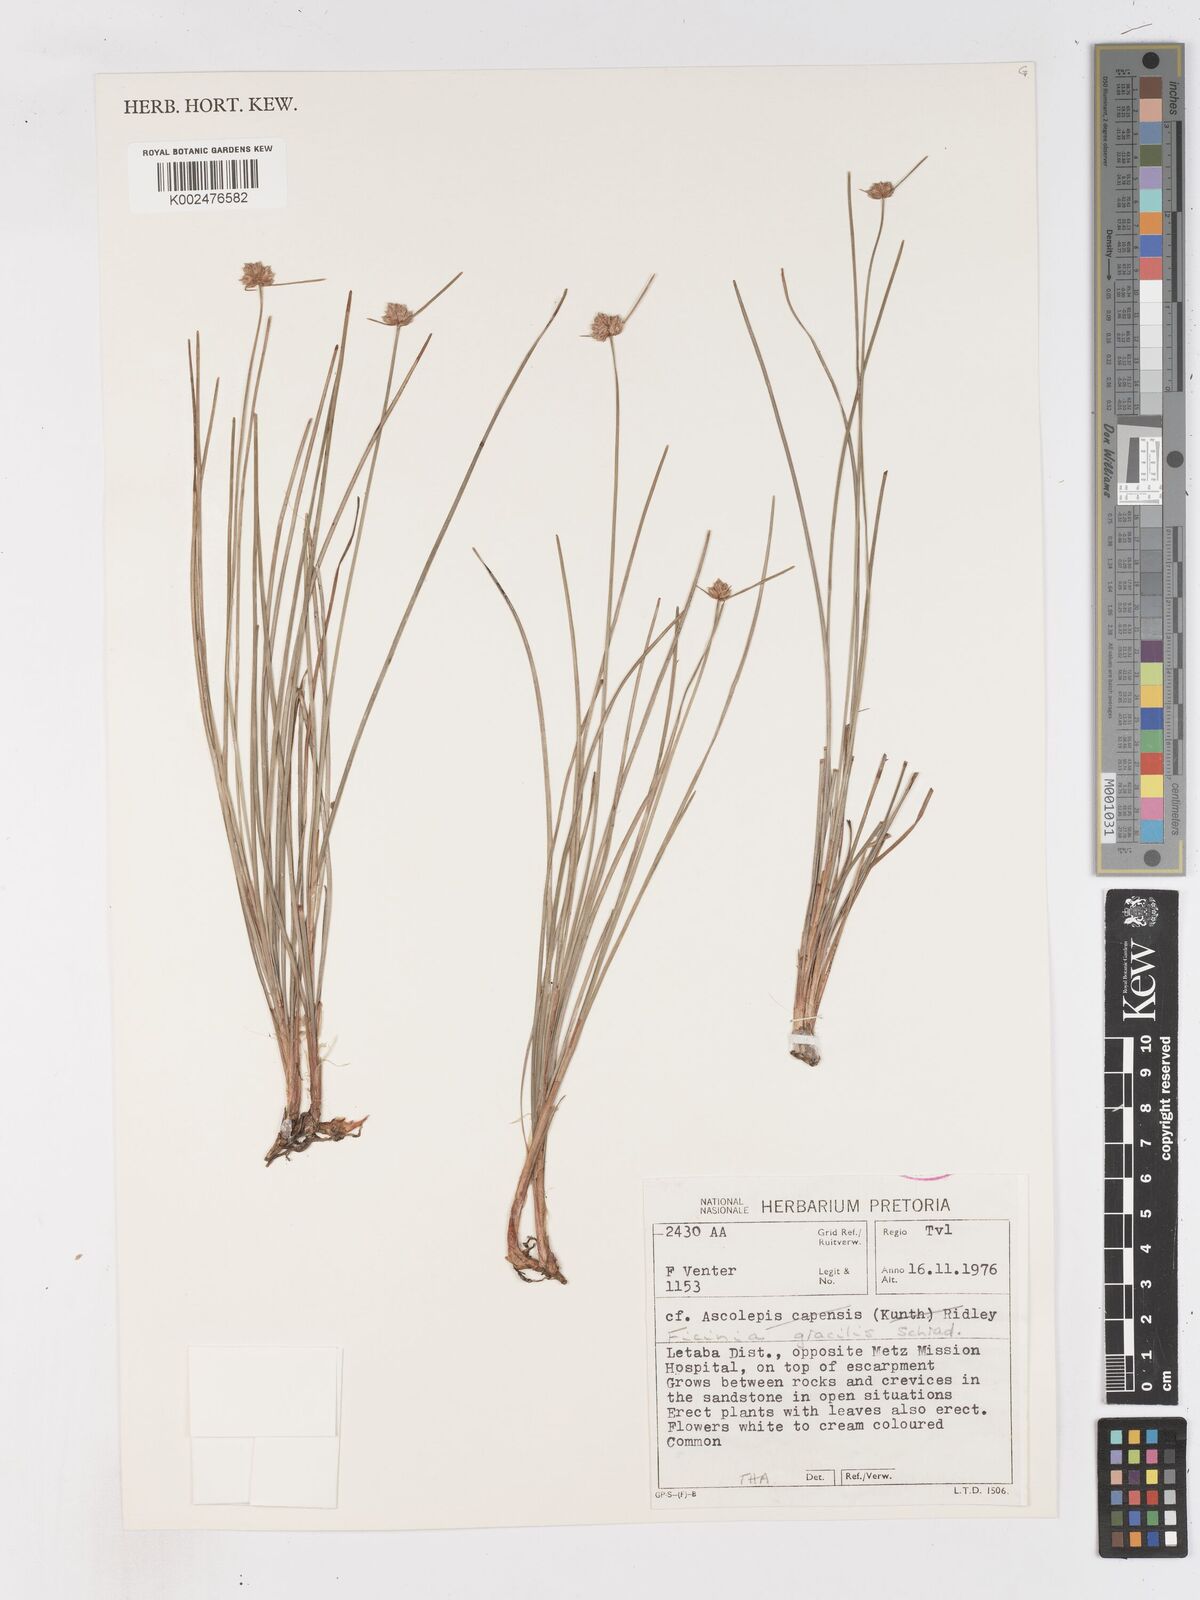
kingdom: Plantae
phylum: Tracheophyta
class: Liliopsida
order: Poales
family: Cyperaceae
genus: Ficinia
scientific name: Ficinia
